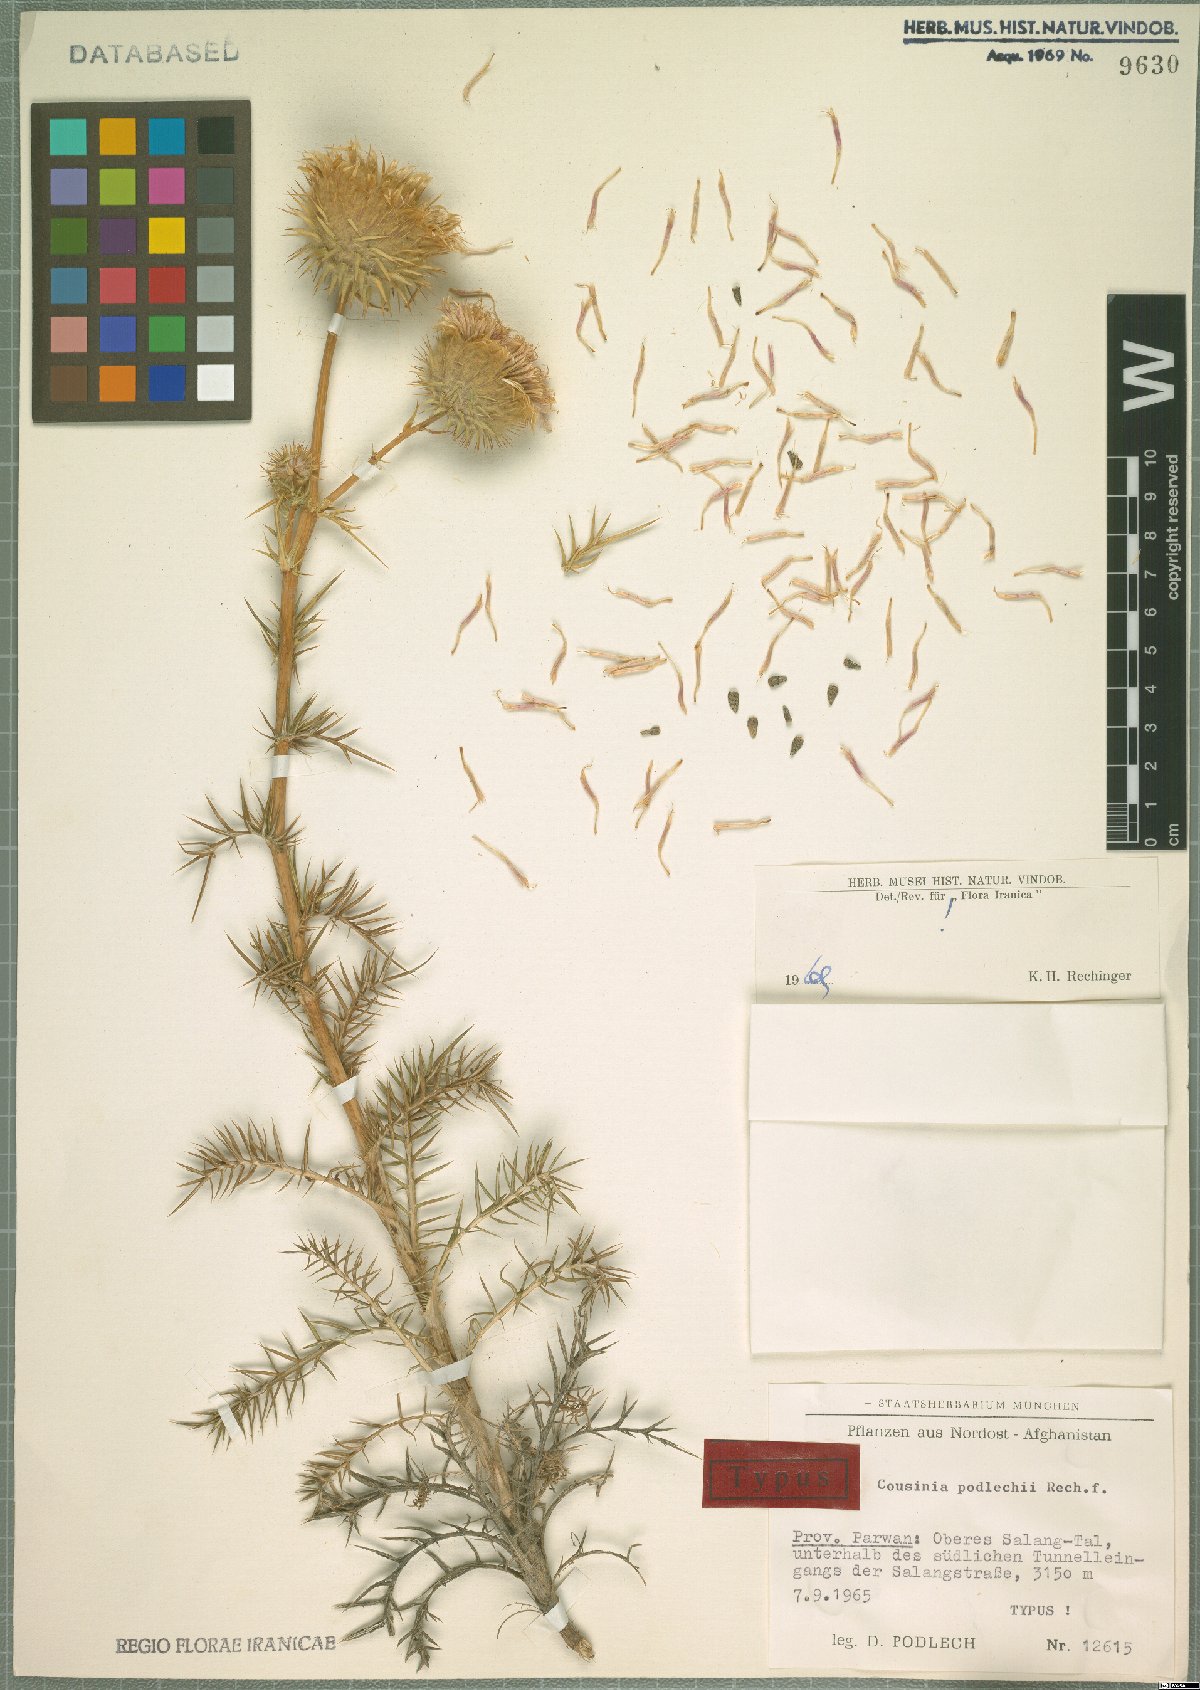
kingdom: Plantae
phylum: Tracheophyta
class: Magnoliopsida
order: Asterales
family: Asteraceae
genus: Cousinia
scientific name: Cousinia podlechii
